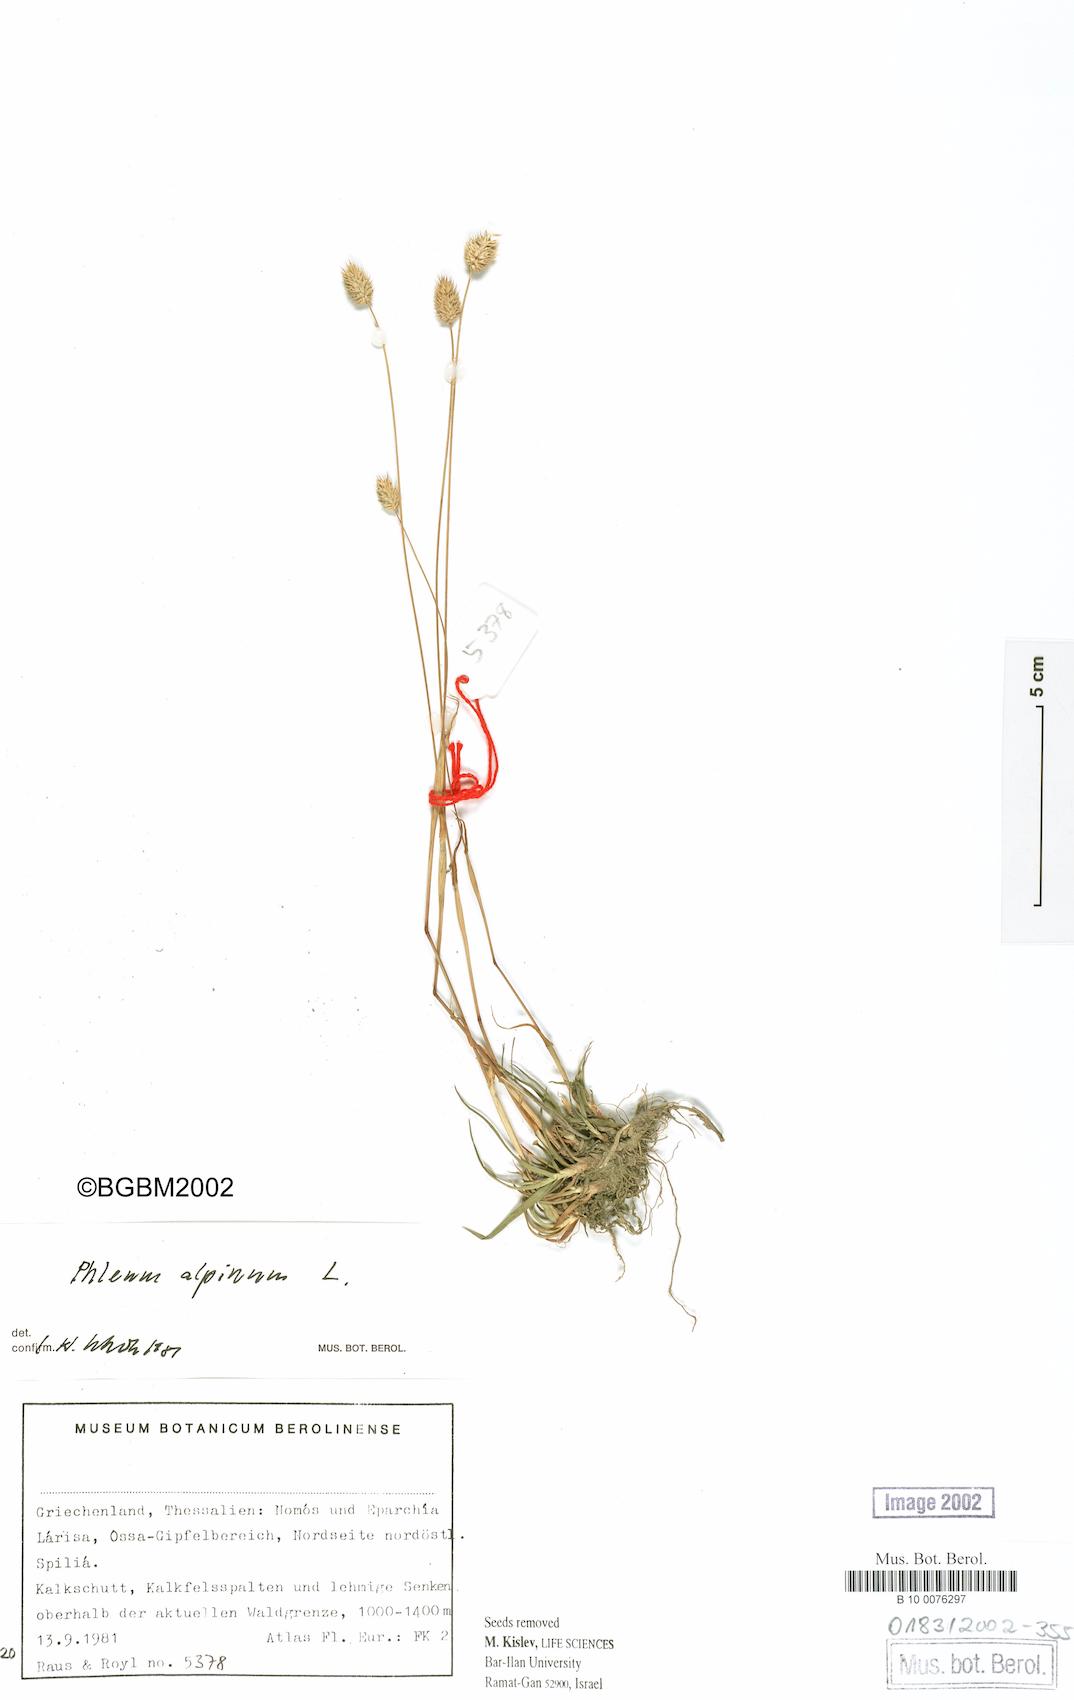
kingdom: Plantae
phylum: Tracheophyta
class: Liliopsida
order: Poales
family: Poaceae
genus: Phleum
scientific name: Phleum alpinum
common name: Alpine cat's-tail
